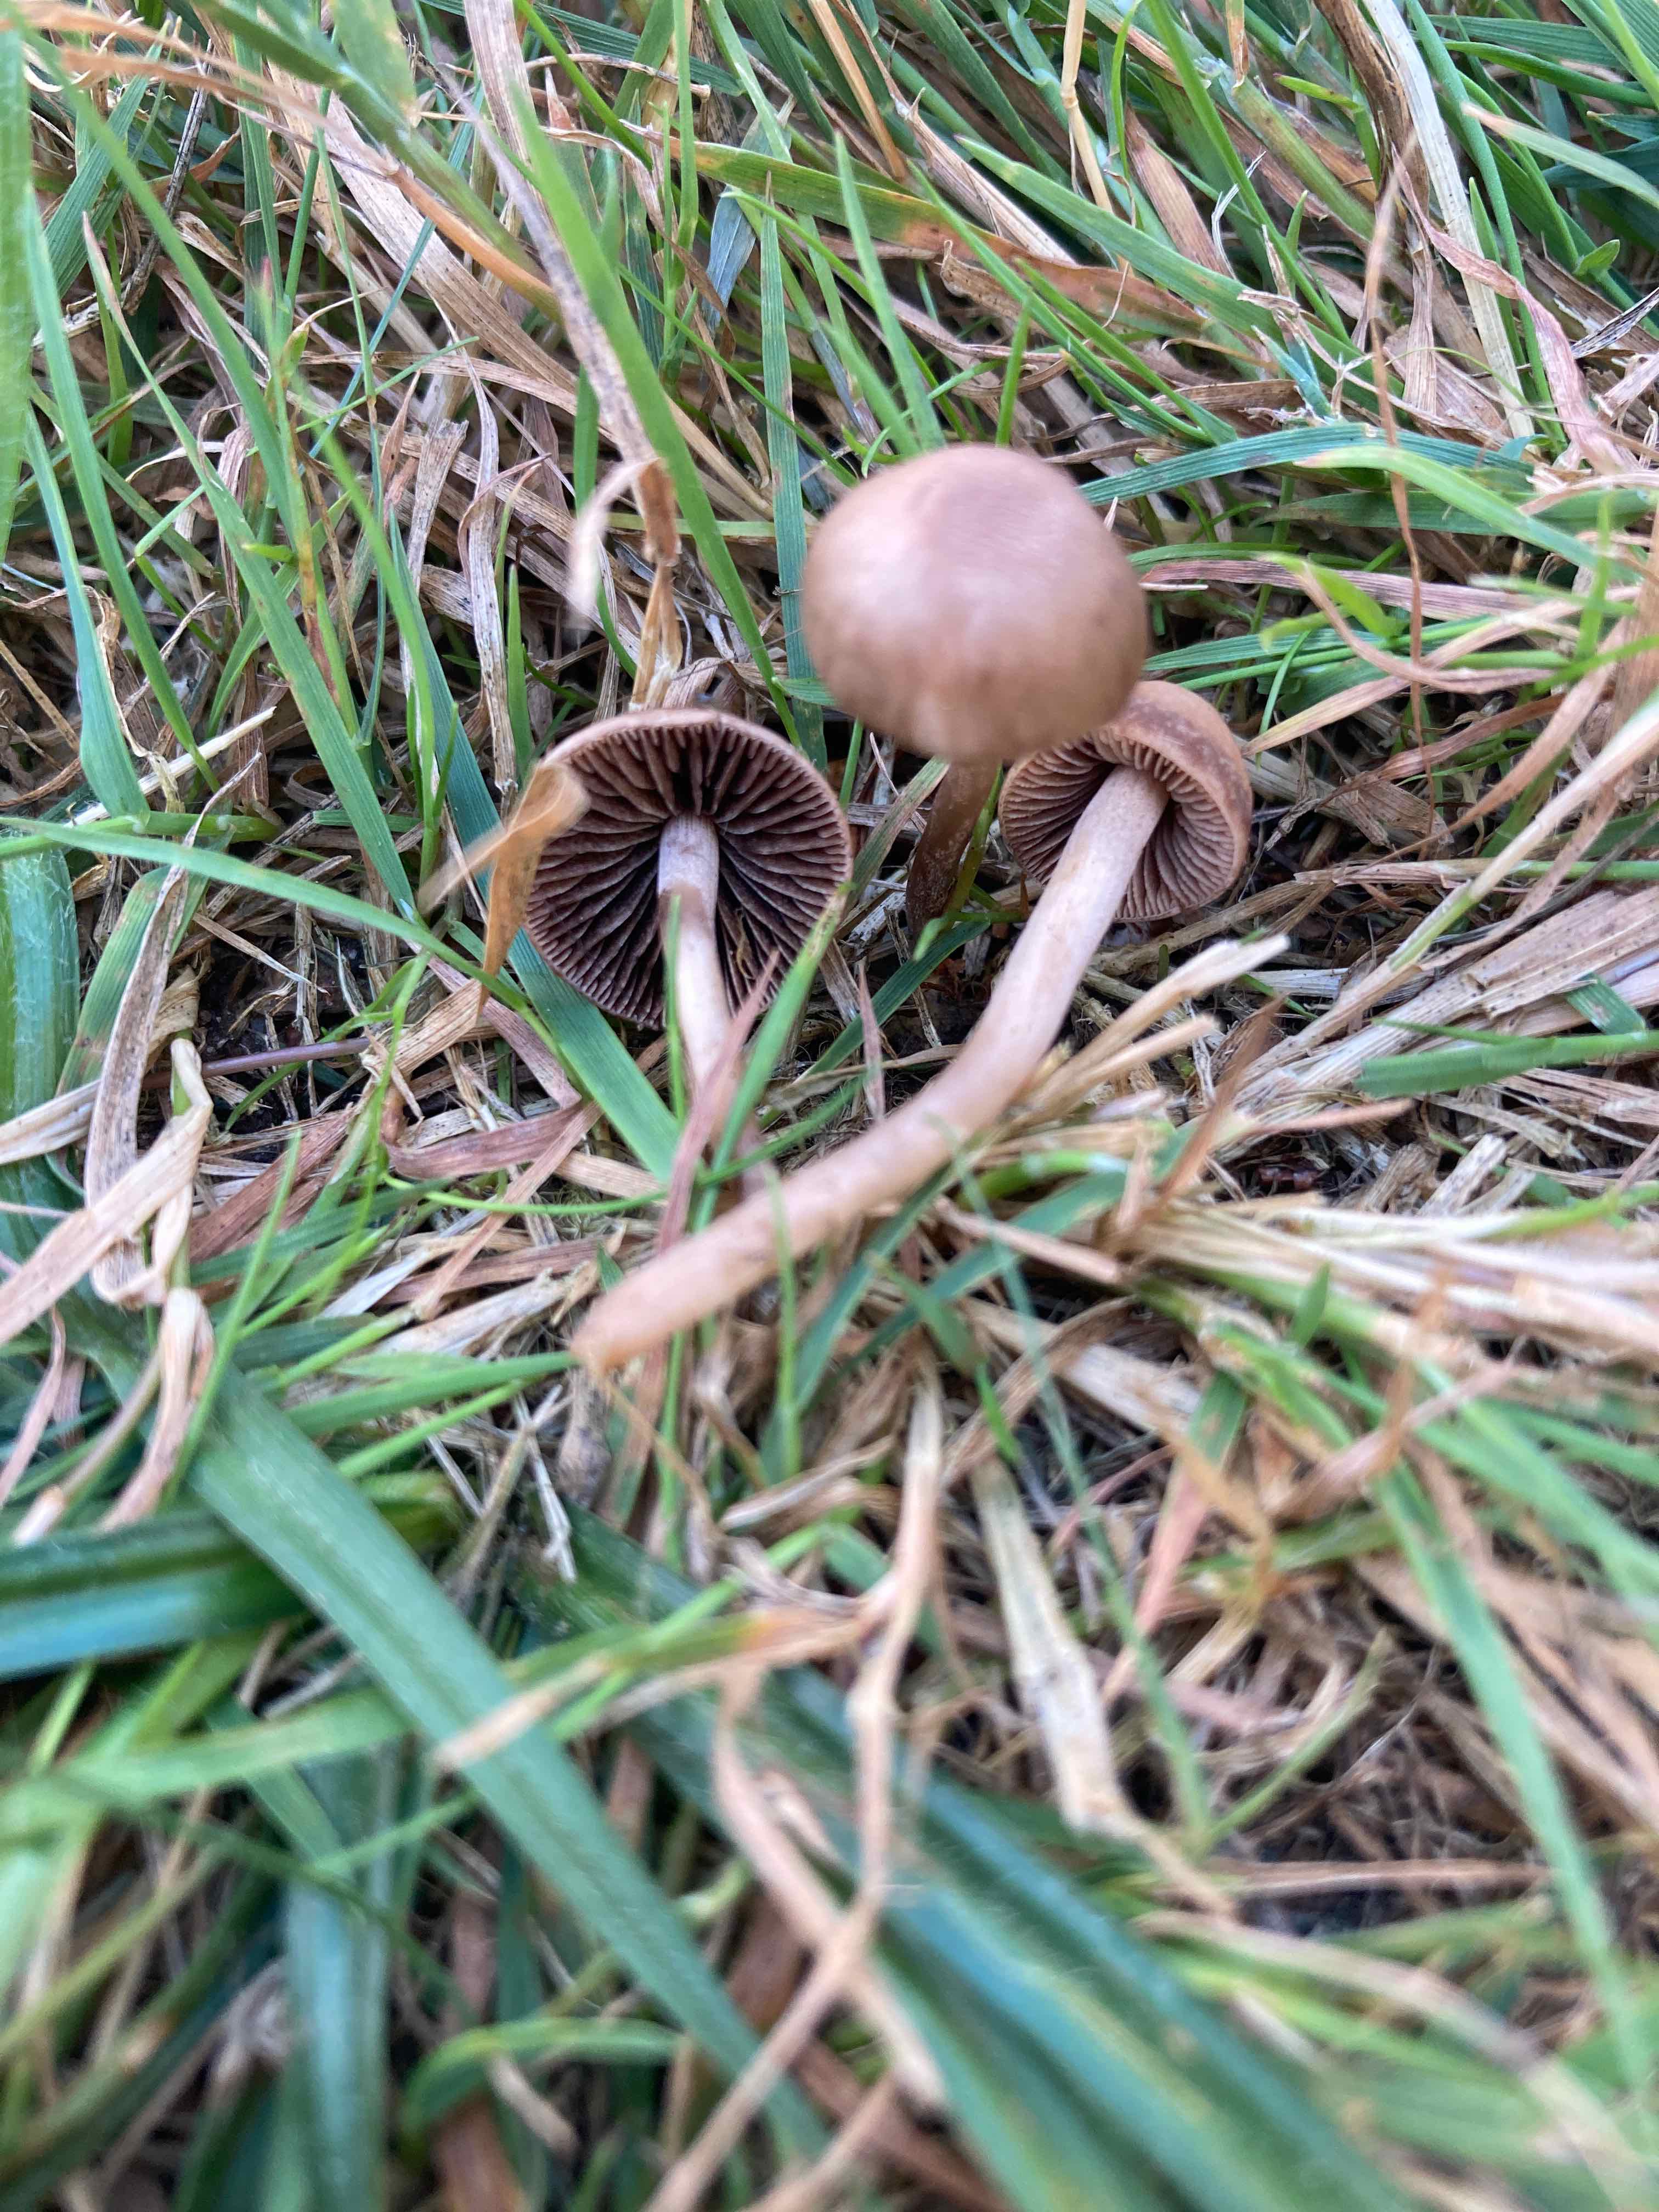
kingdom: Fungi
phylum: Basidiomycota
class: Agaricomycetes
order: Agaricales
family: Bolbitiaceae
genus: Panaeolina
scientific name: Panaeolina foenisecii
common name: høslætsvamp
